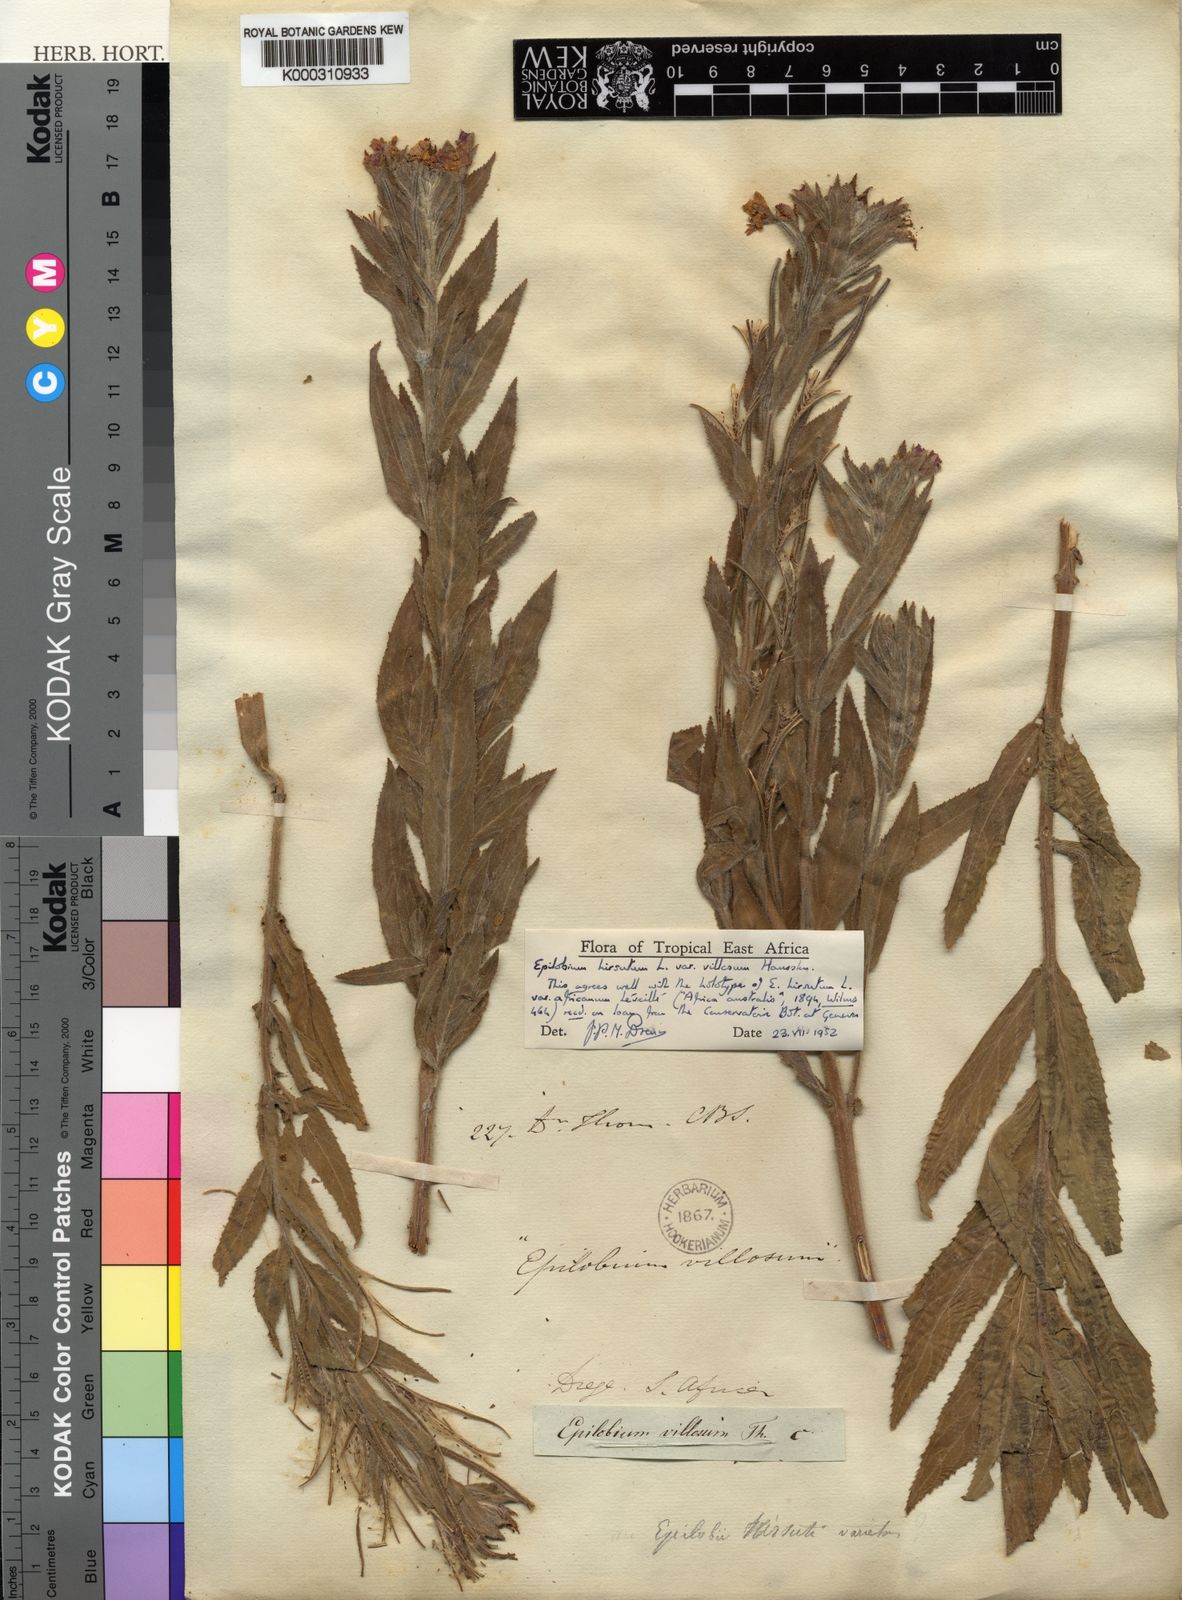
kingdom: Plantae
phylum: Tracheophyta
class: Magnoliopsida
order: Myrtales
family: Onagraceae
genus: Epilobium
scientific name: Epilobium
